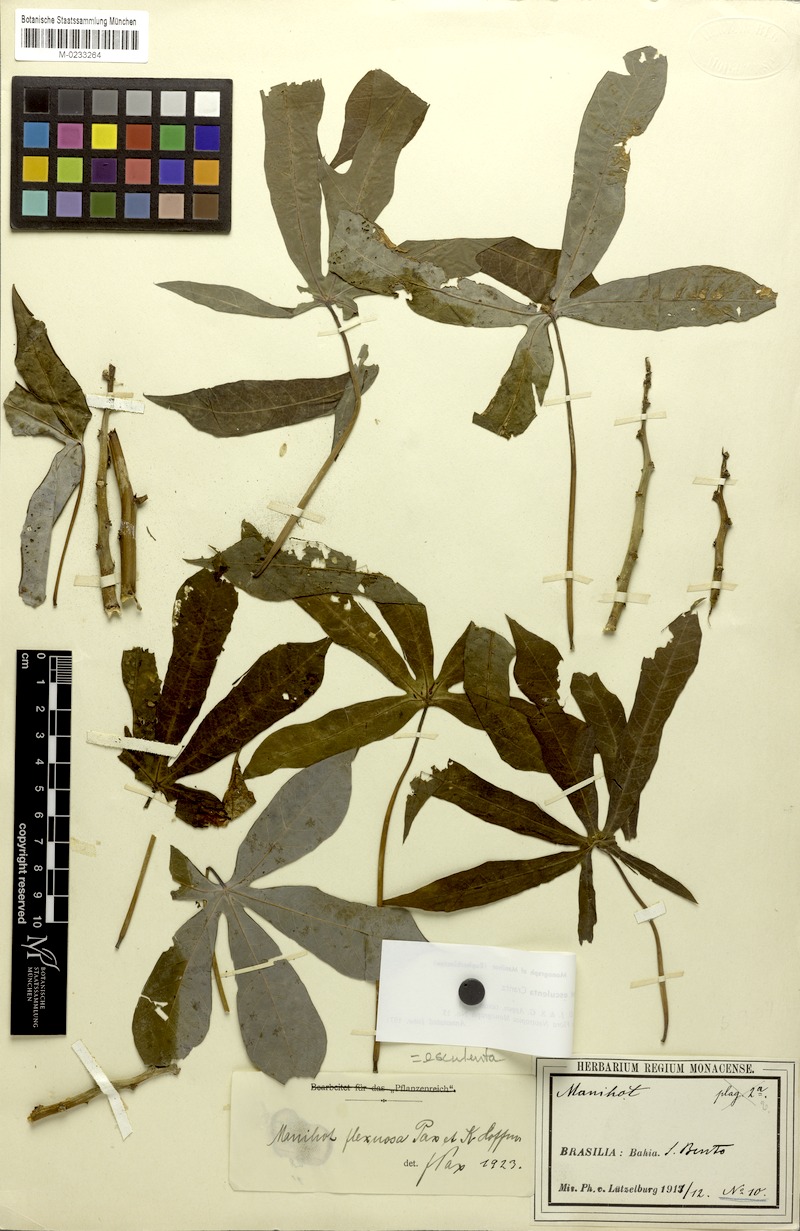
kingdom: Plantae
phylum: Tracheophyta
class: Magnoliopsida
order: Malpighiales
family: Euphorbiaceae
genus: Manihot
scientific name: Manihot esculenta
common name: Cassava
